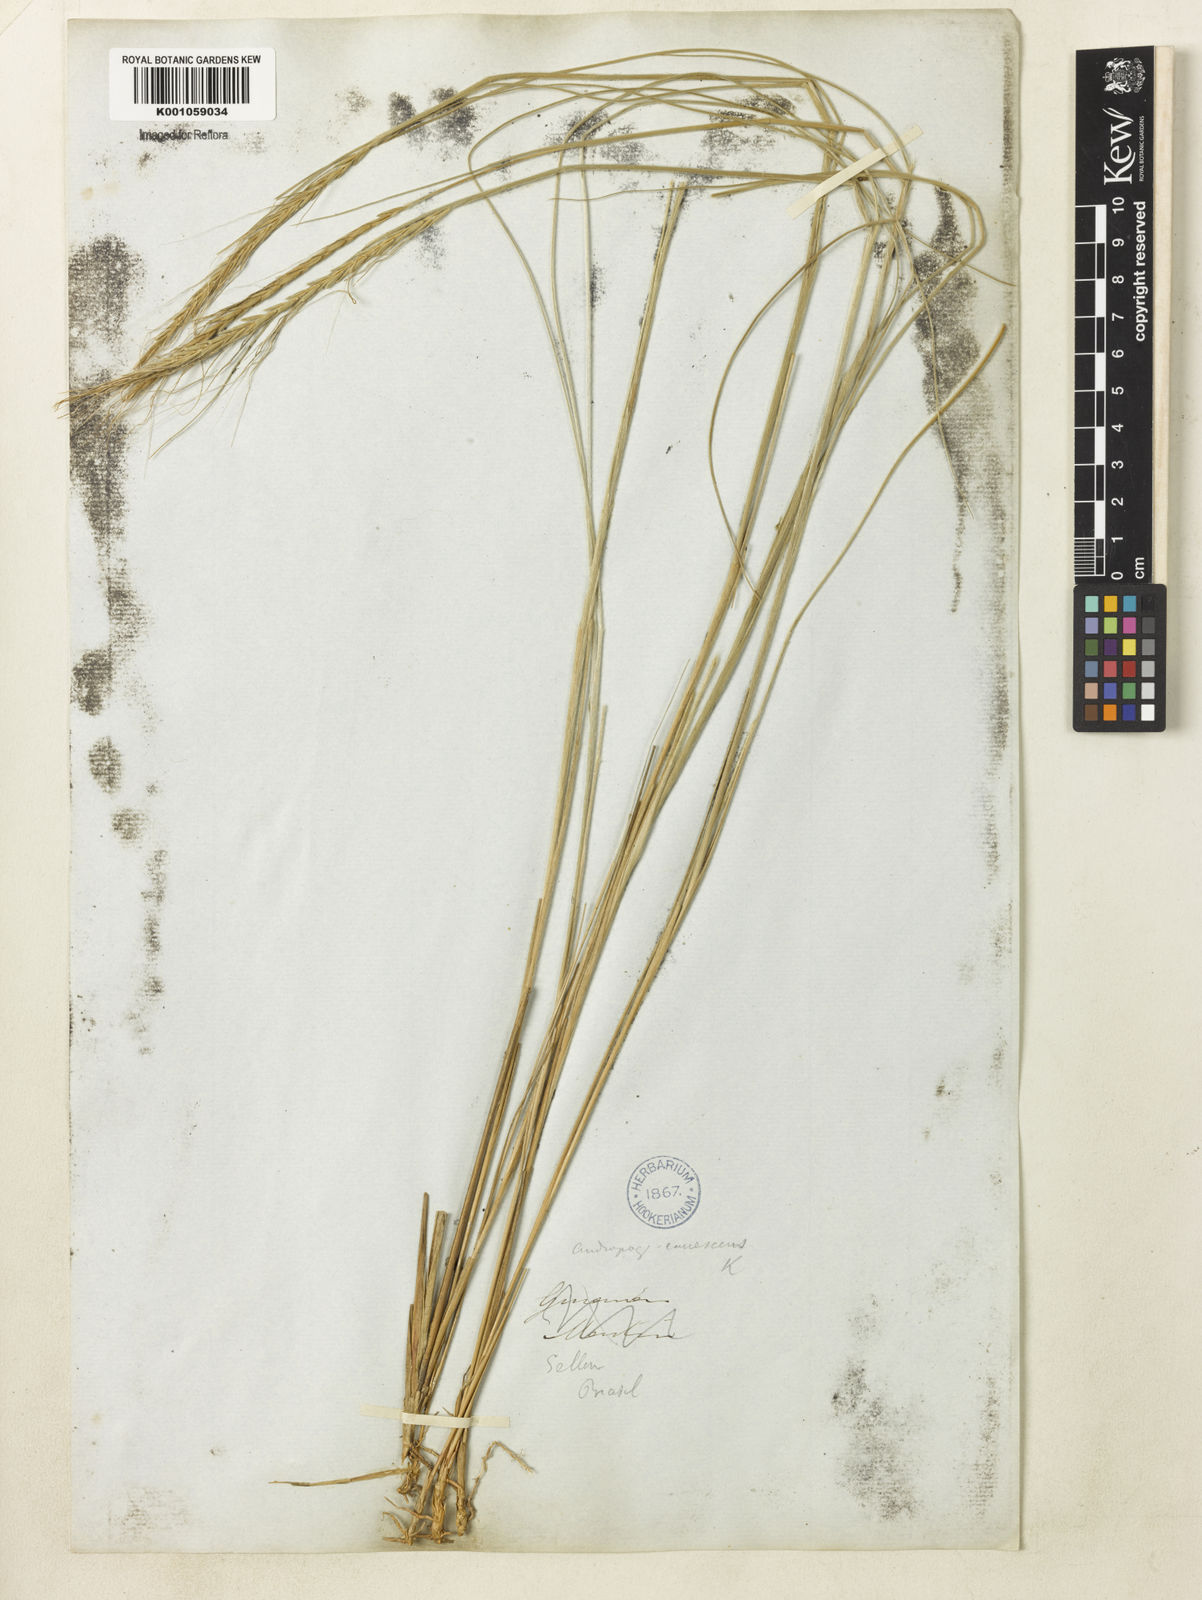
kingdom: Plantae
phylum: Tracheophyta
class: Liliopsida
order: Poales
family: Poaceae
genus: Trachypogon
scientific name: Trachypogon spicatus
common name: Crinkle-awn
